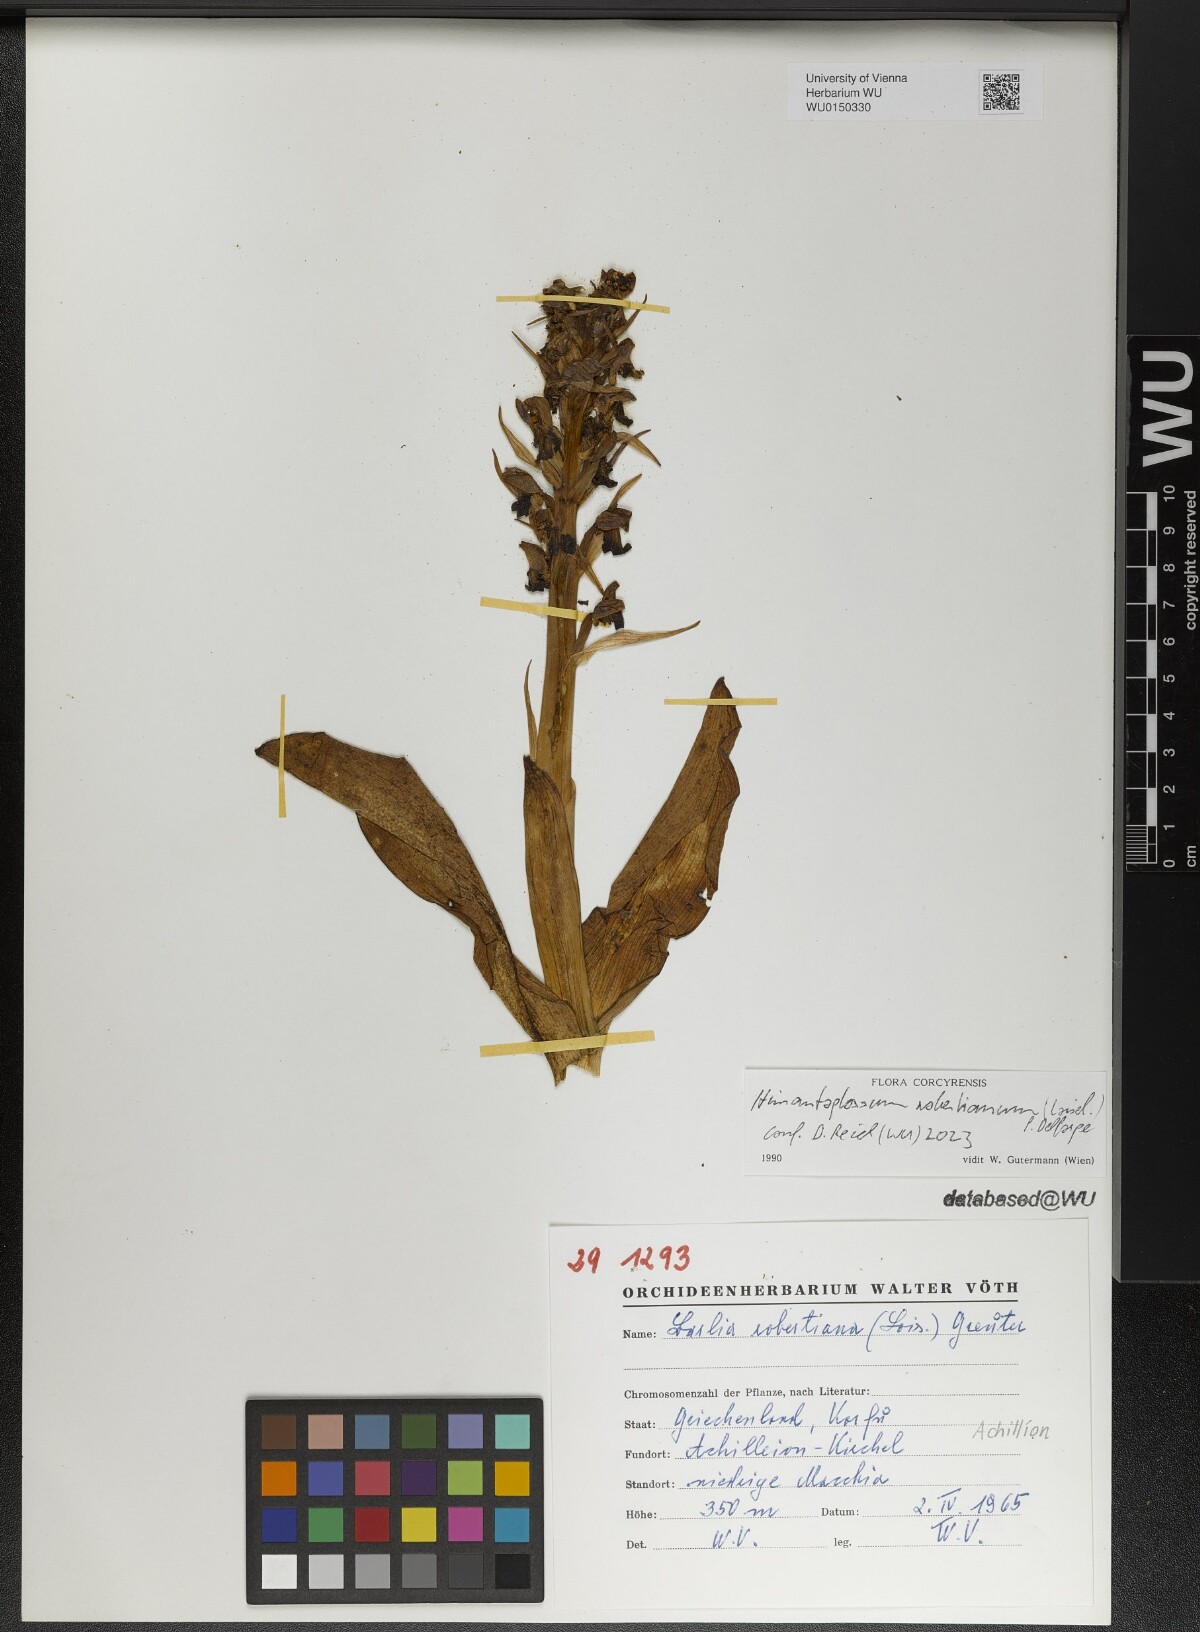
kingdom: Plantae
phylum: Tracheophyta
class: Liliopsida
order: Asparagales
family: Orchidaceae
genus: Himantoglossum
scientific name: Himantoglossum robertianum
